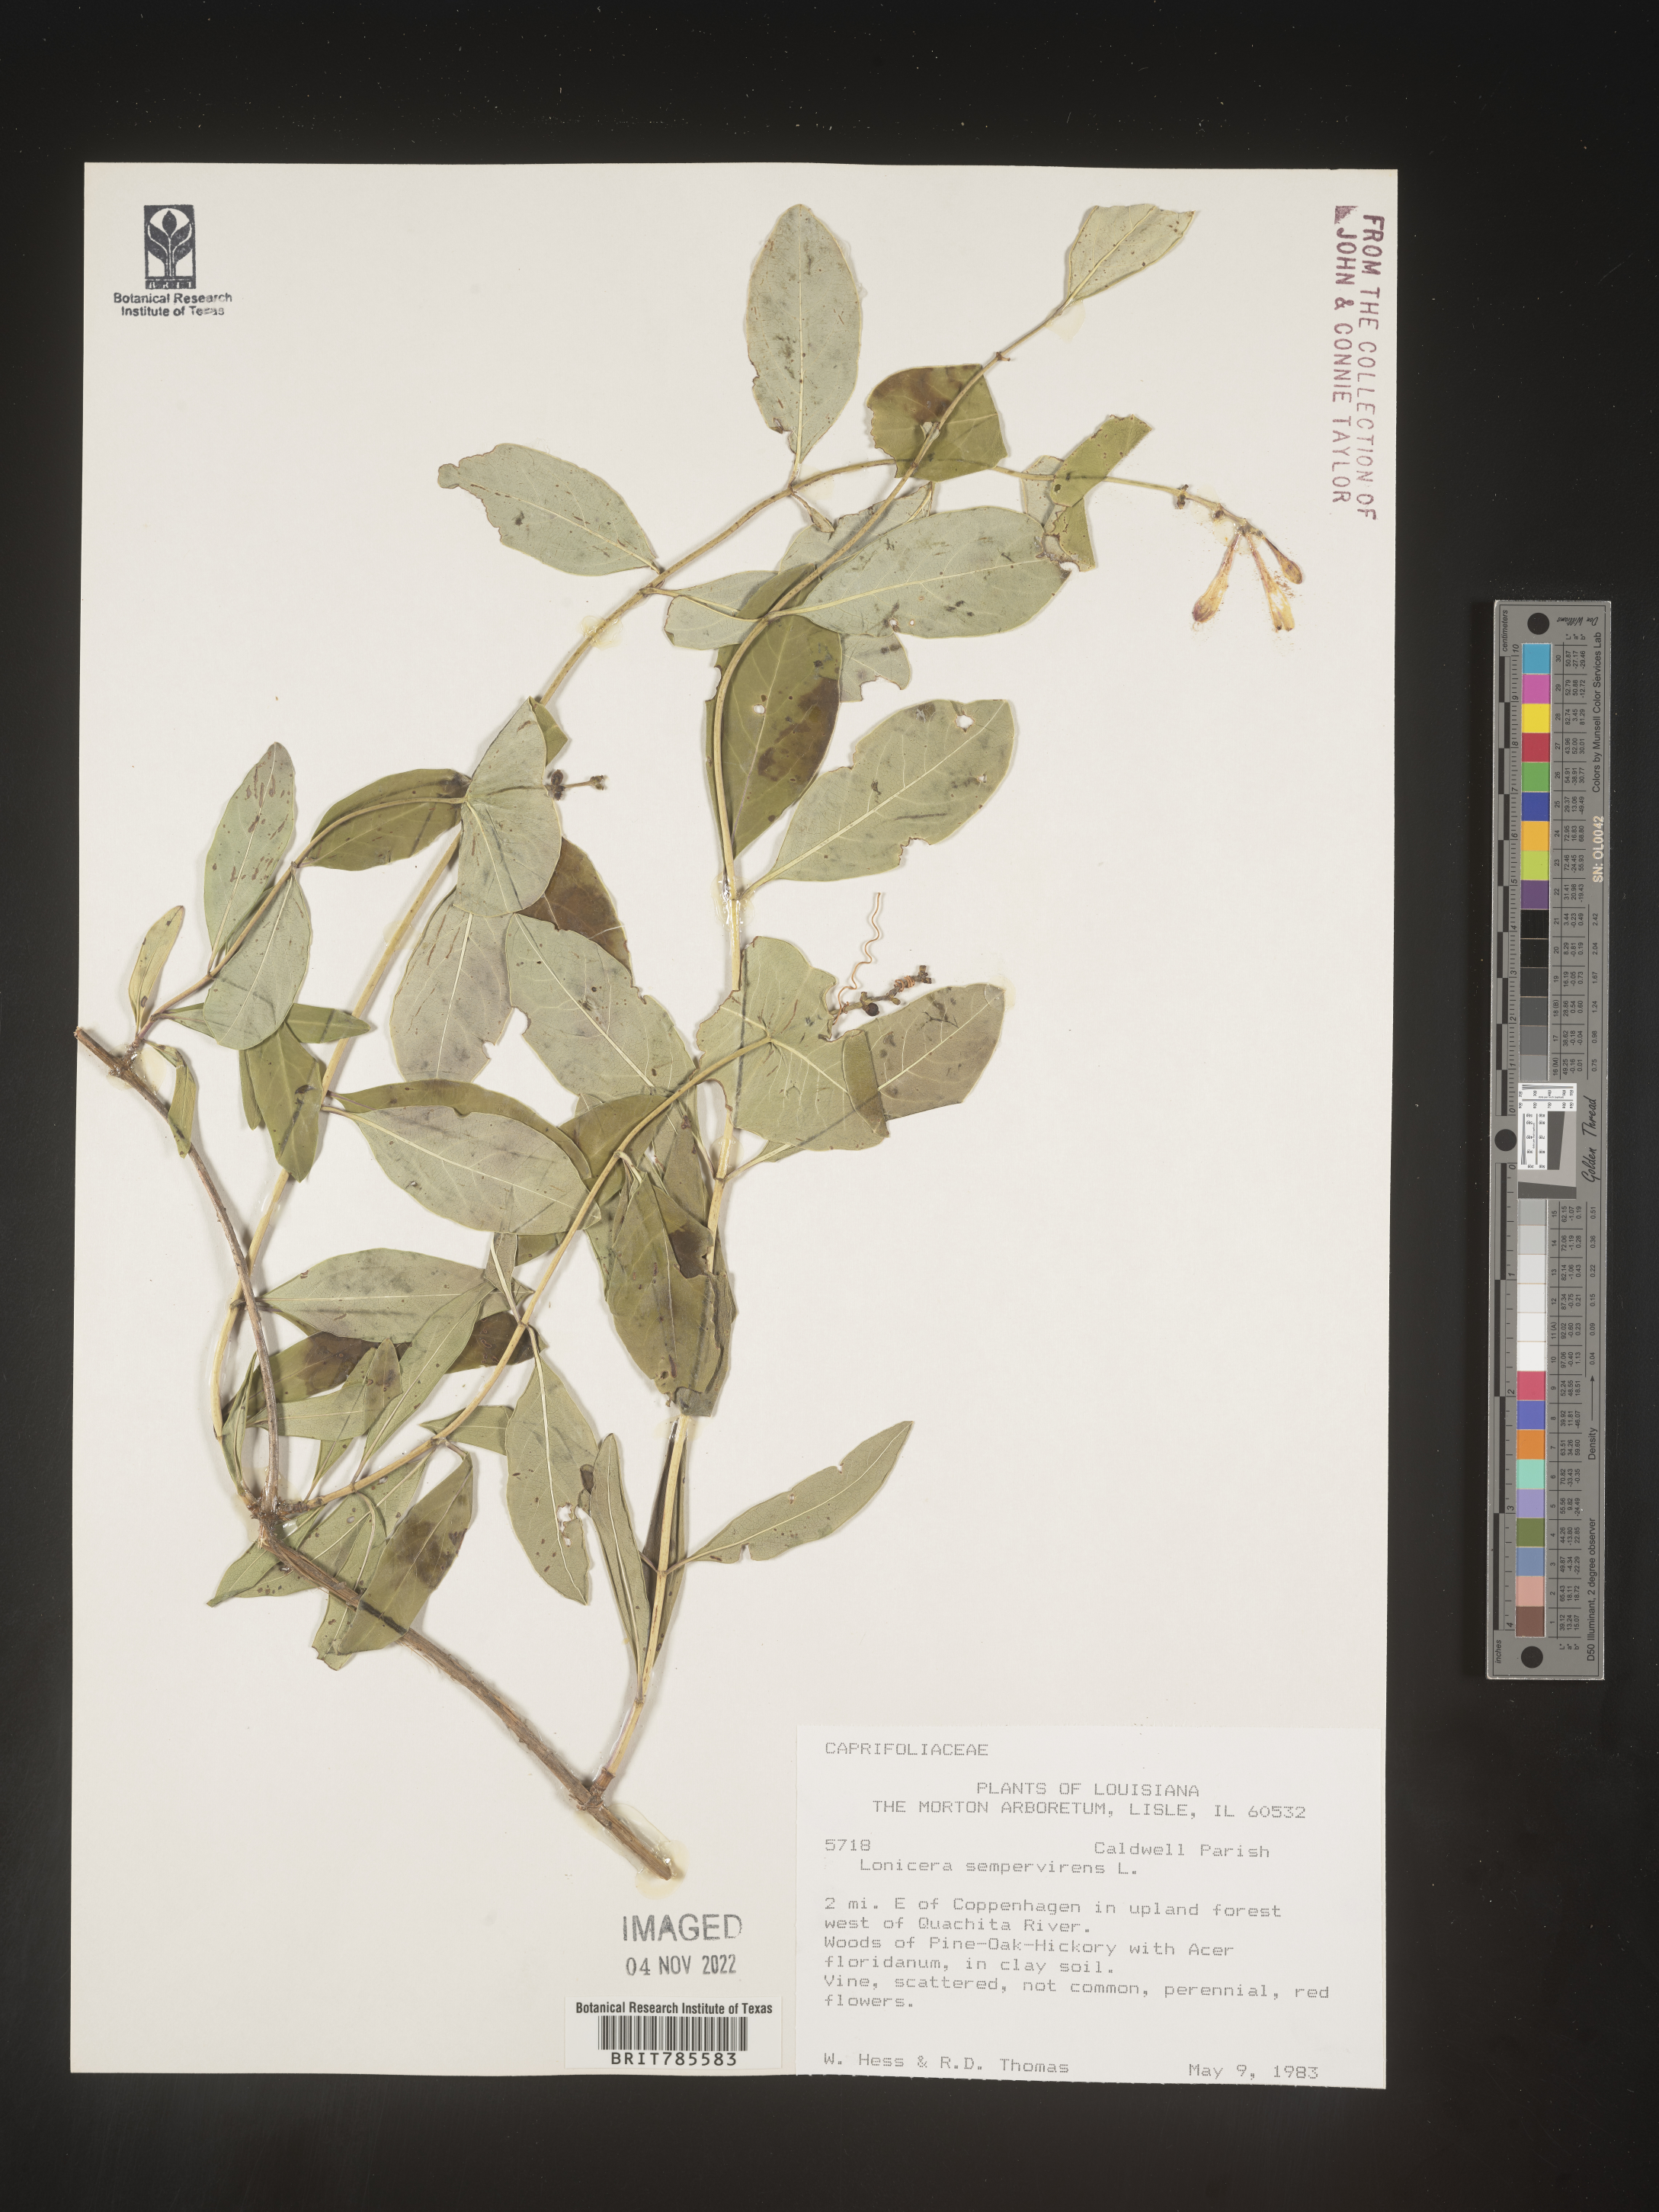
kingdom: Plantae
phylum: Tracheophyta
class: Magnoliopsida
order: Dipsacales
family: Caprifoliaceae
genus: Lonicera
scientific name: Lonicera sempervirens
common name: Coral honeysuckle
